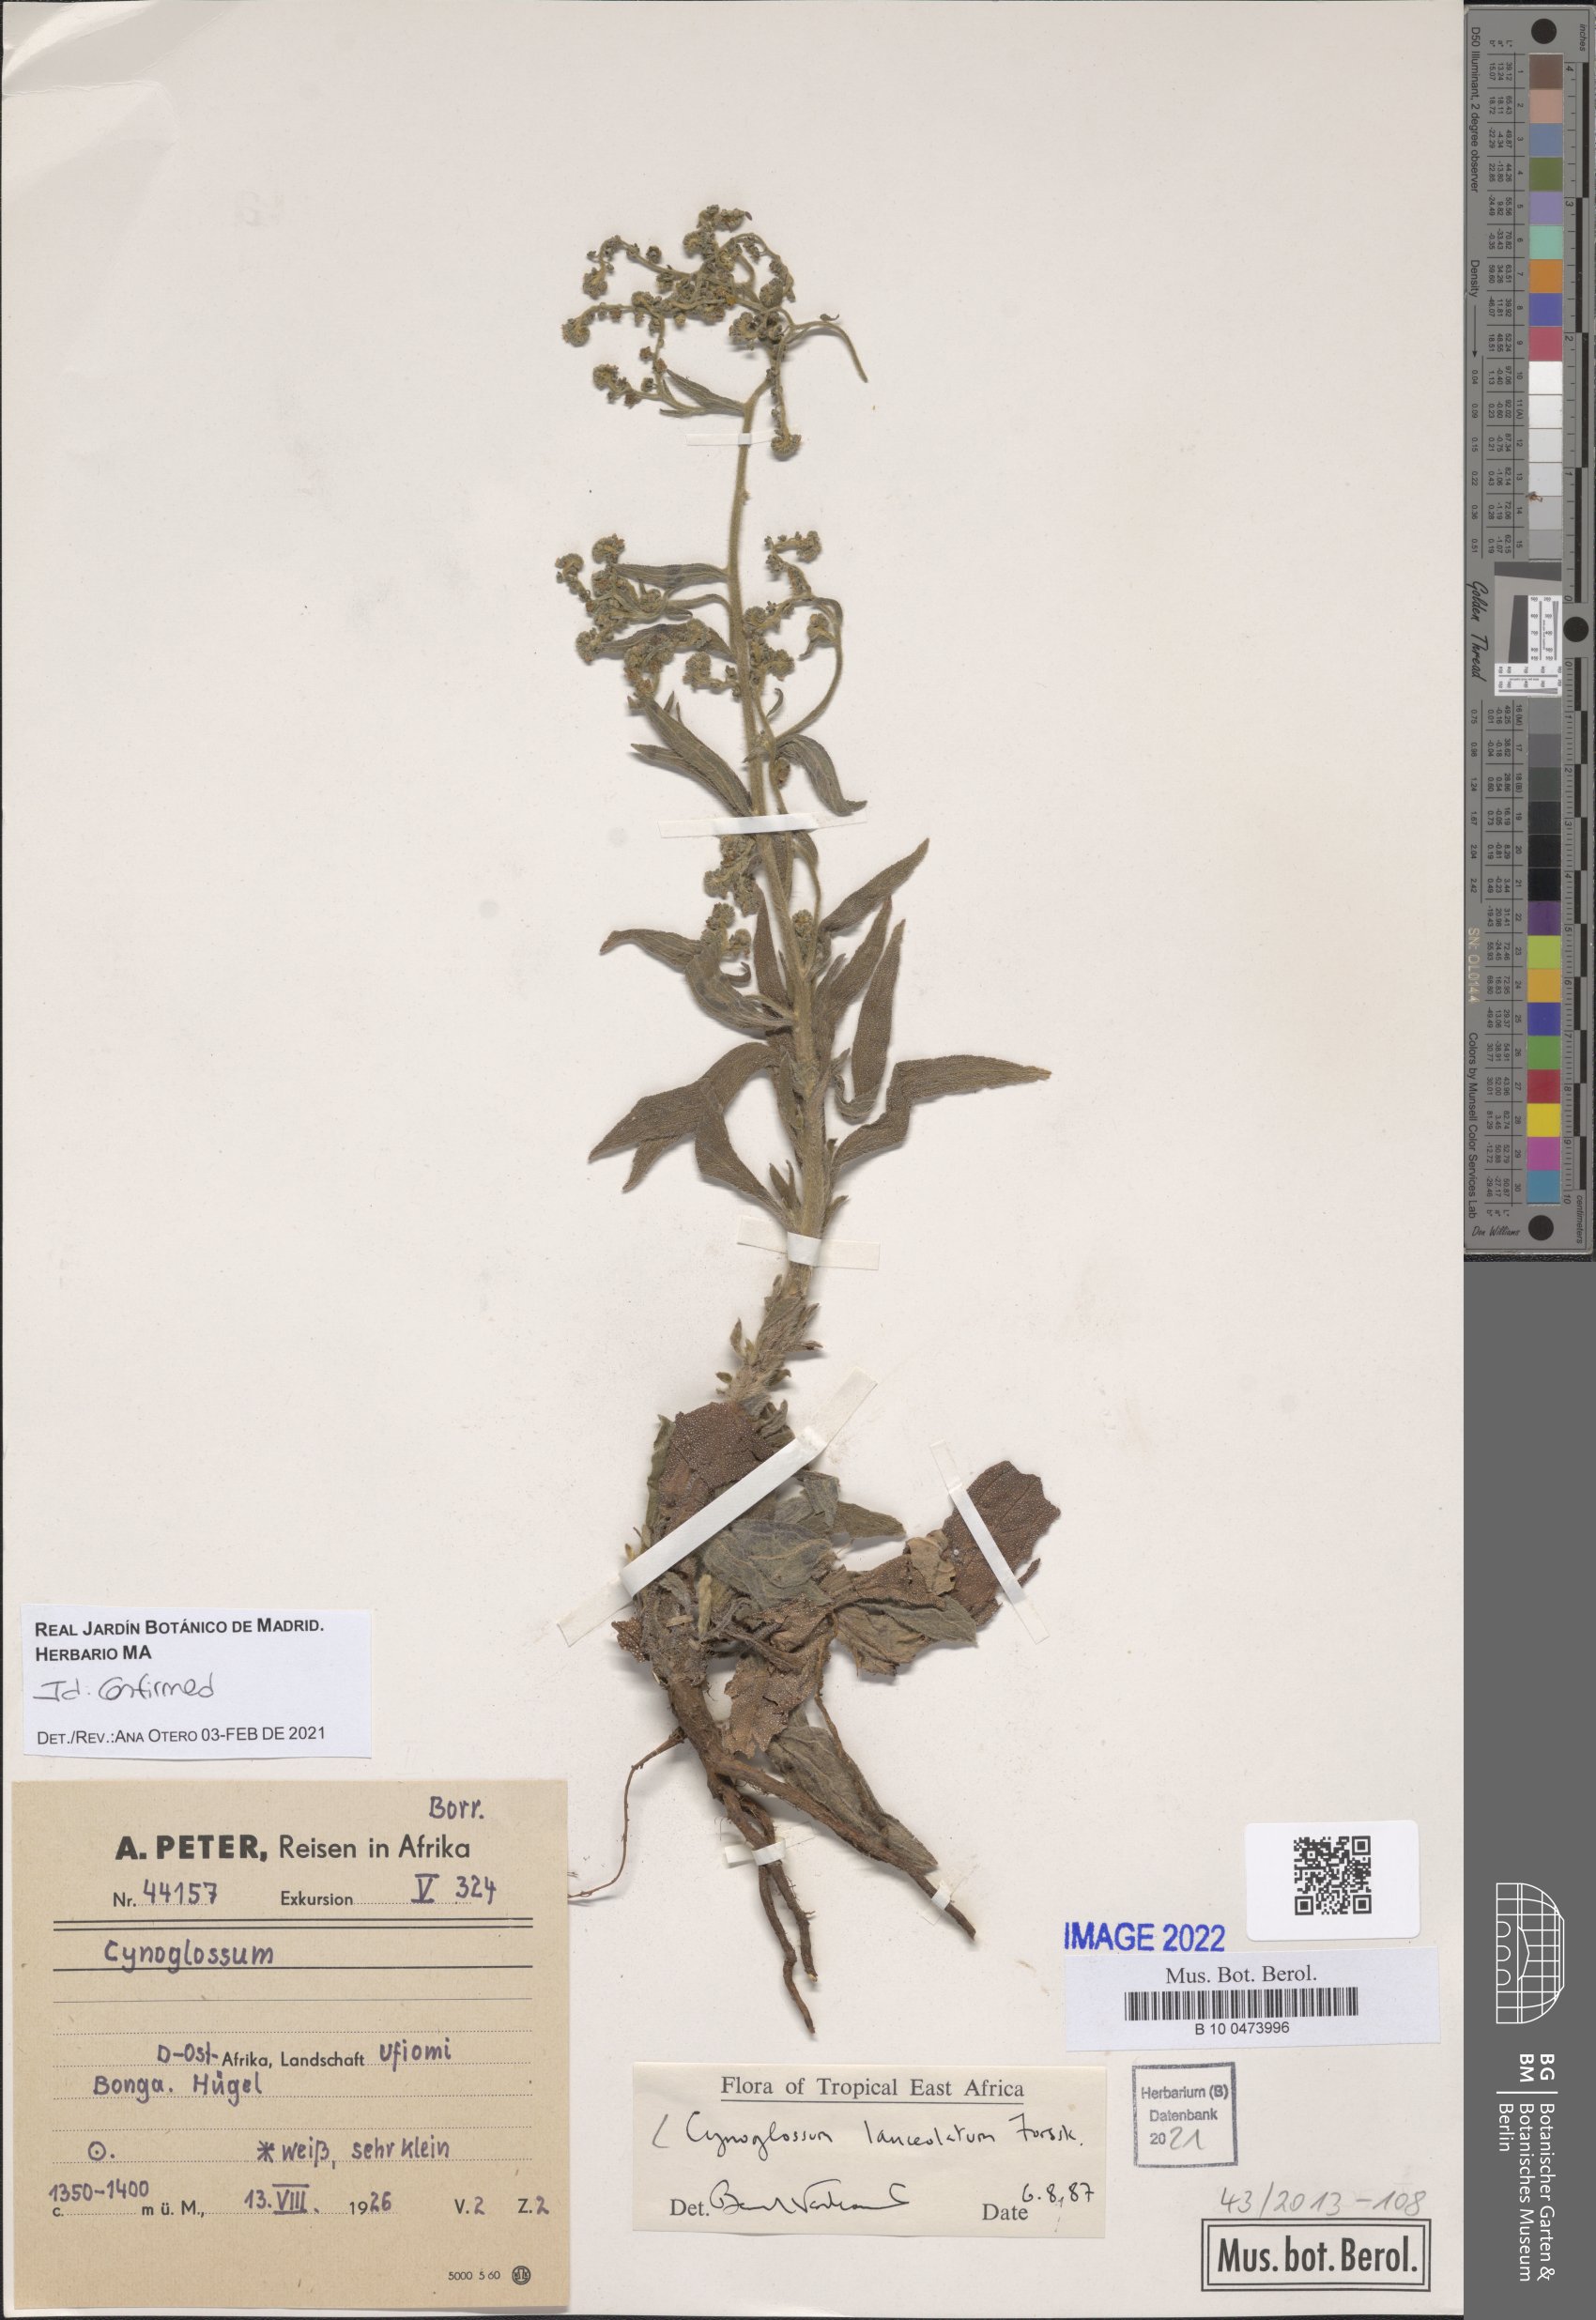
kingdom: Plantae
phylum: Tracheophyta
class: Magnoliopsida
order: Boraginales
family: Boraginaceae
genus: Paracynoglossum
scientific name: Paracynoglossum lanceolatum
